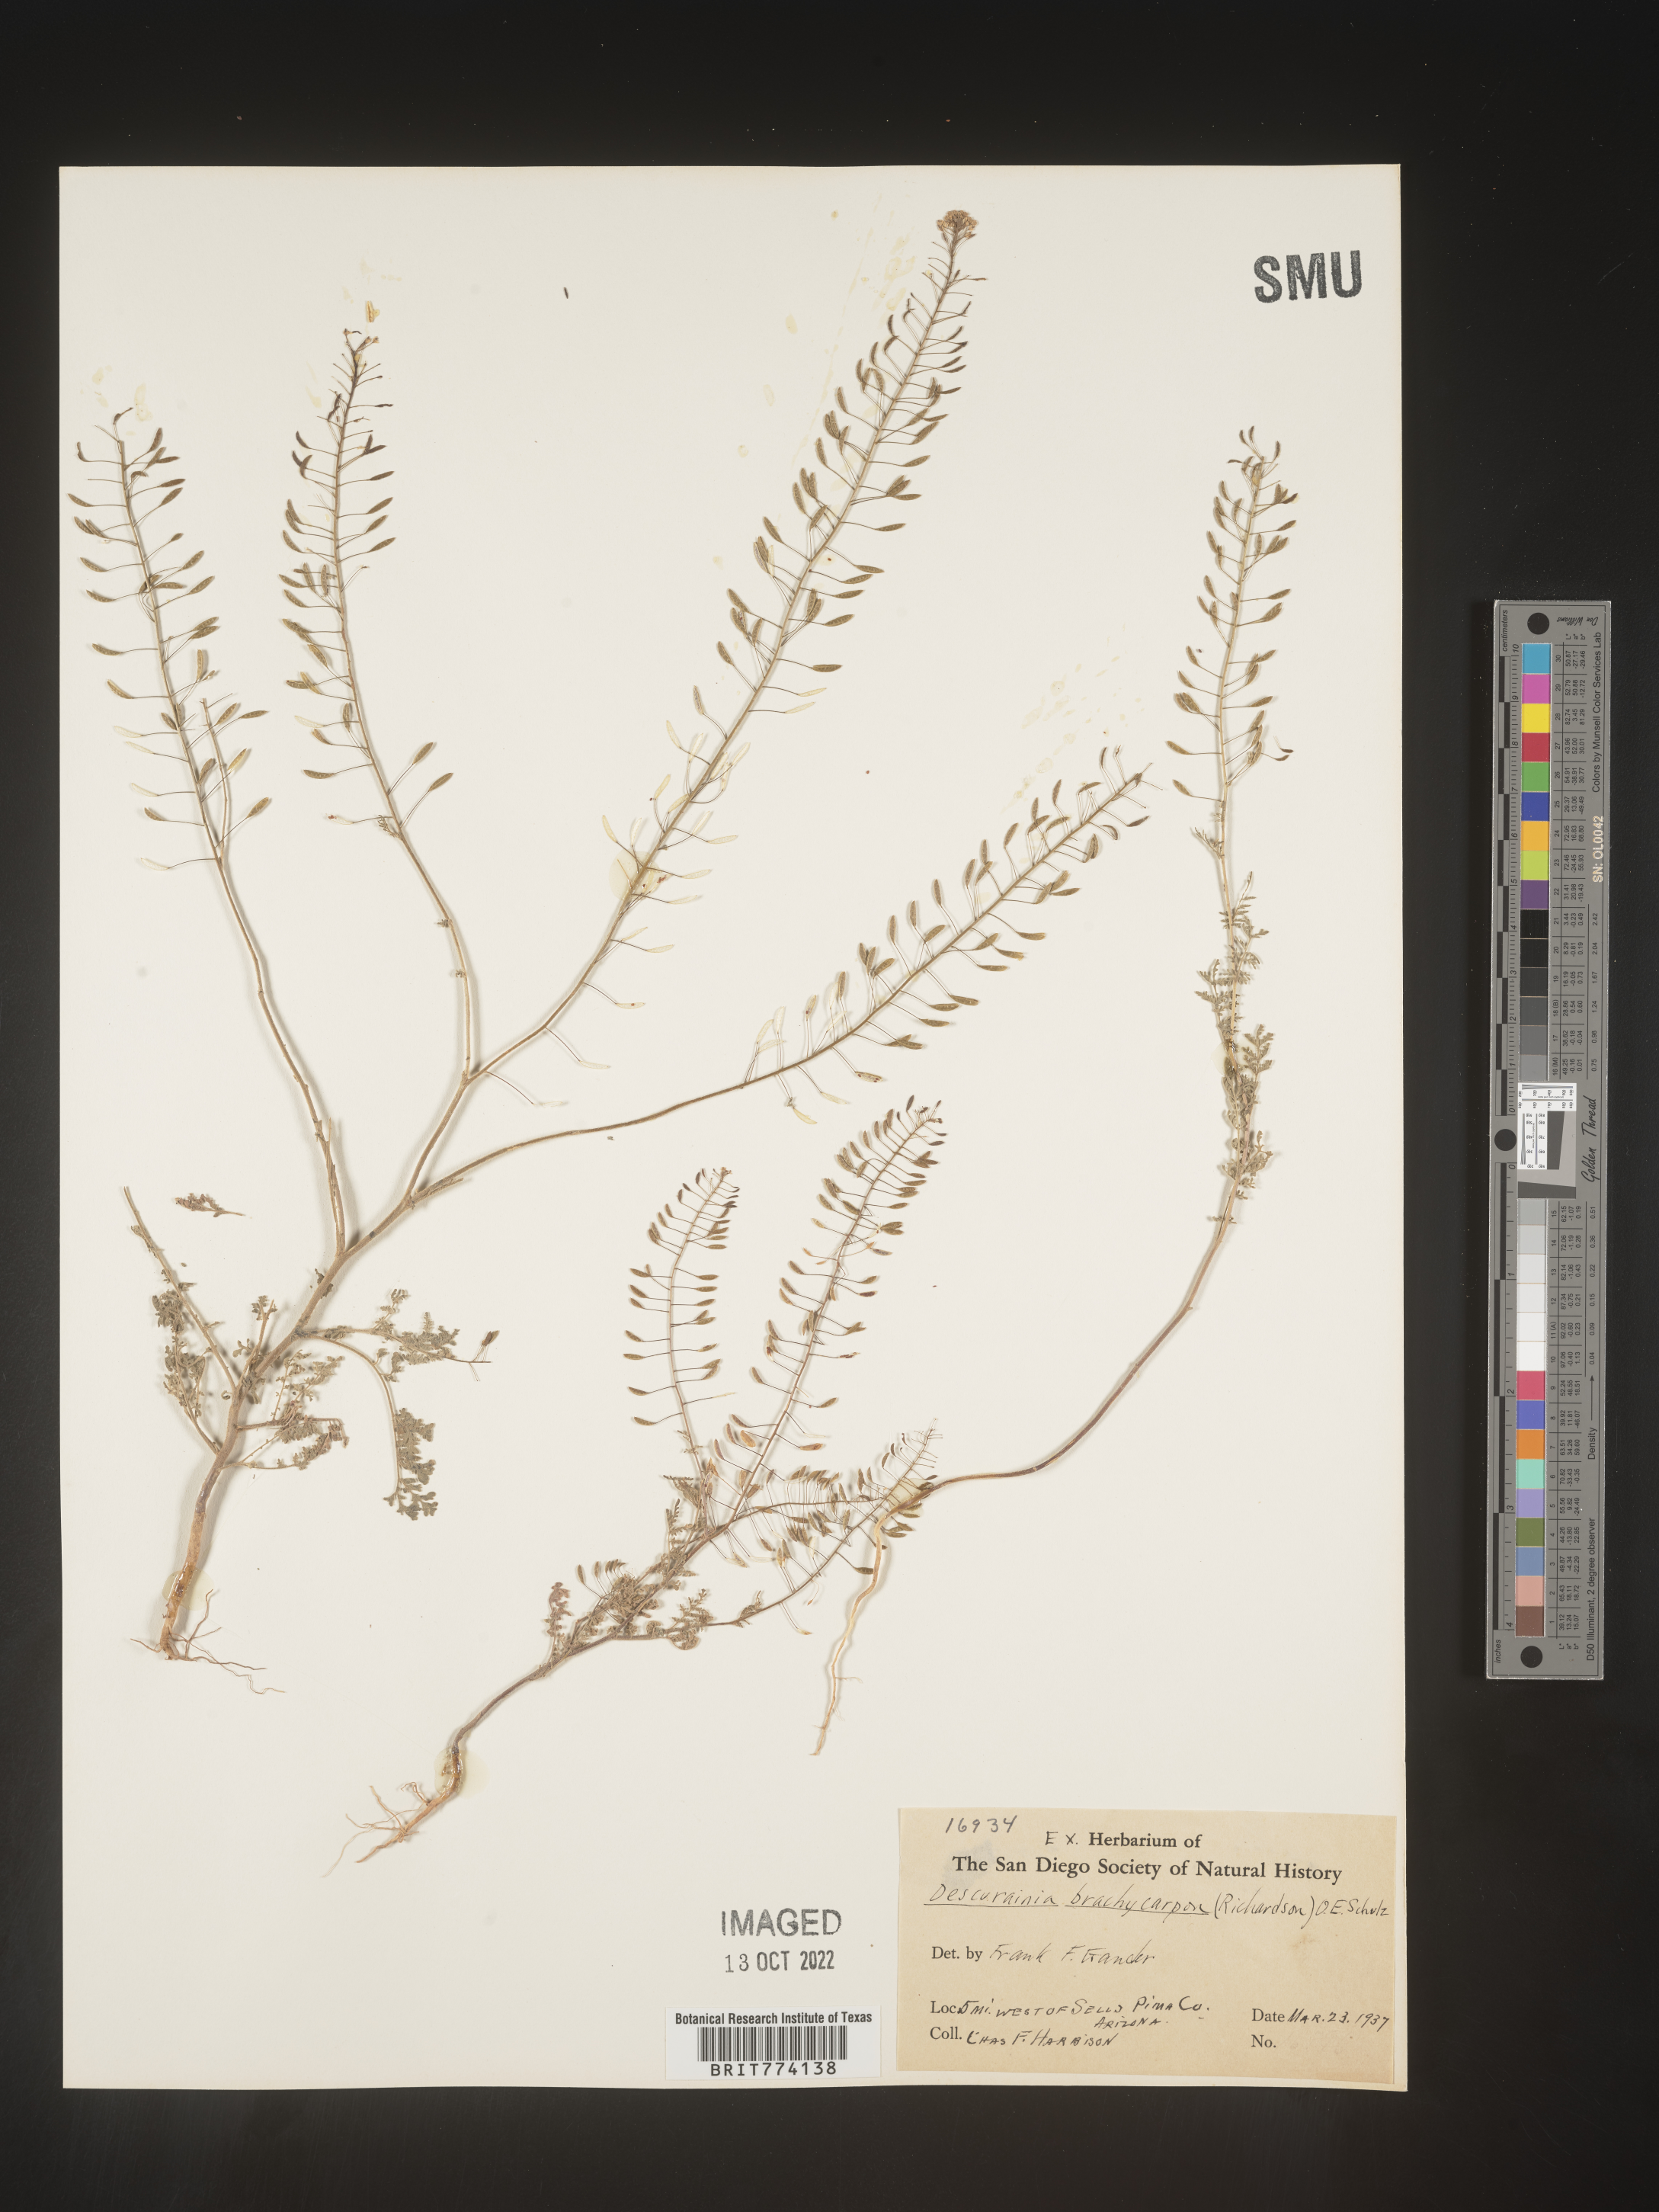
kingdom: Plantae
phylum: Tracheophyta
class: Magnoliopsida
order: Brassicales
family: Brassicaceae
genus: Descurainia
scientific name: Descurainia pinnata
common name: Western tansy mustard
